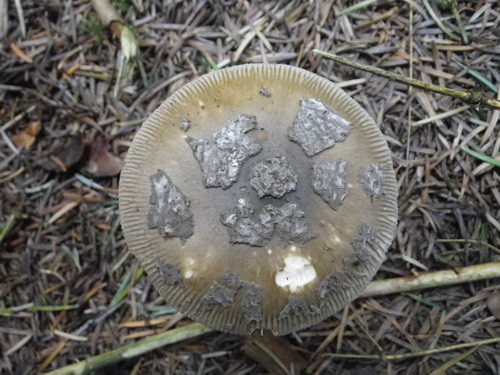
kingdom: Fungi
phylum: Basidiomycota
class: Agaricomycetes
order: Agaricales
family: Amanitaceae
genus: Amanita
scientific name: Amanita ceciliae
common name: stor kam-fluesvamp
